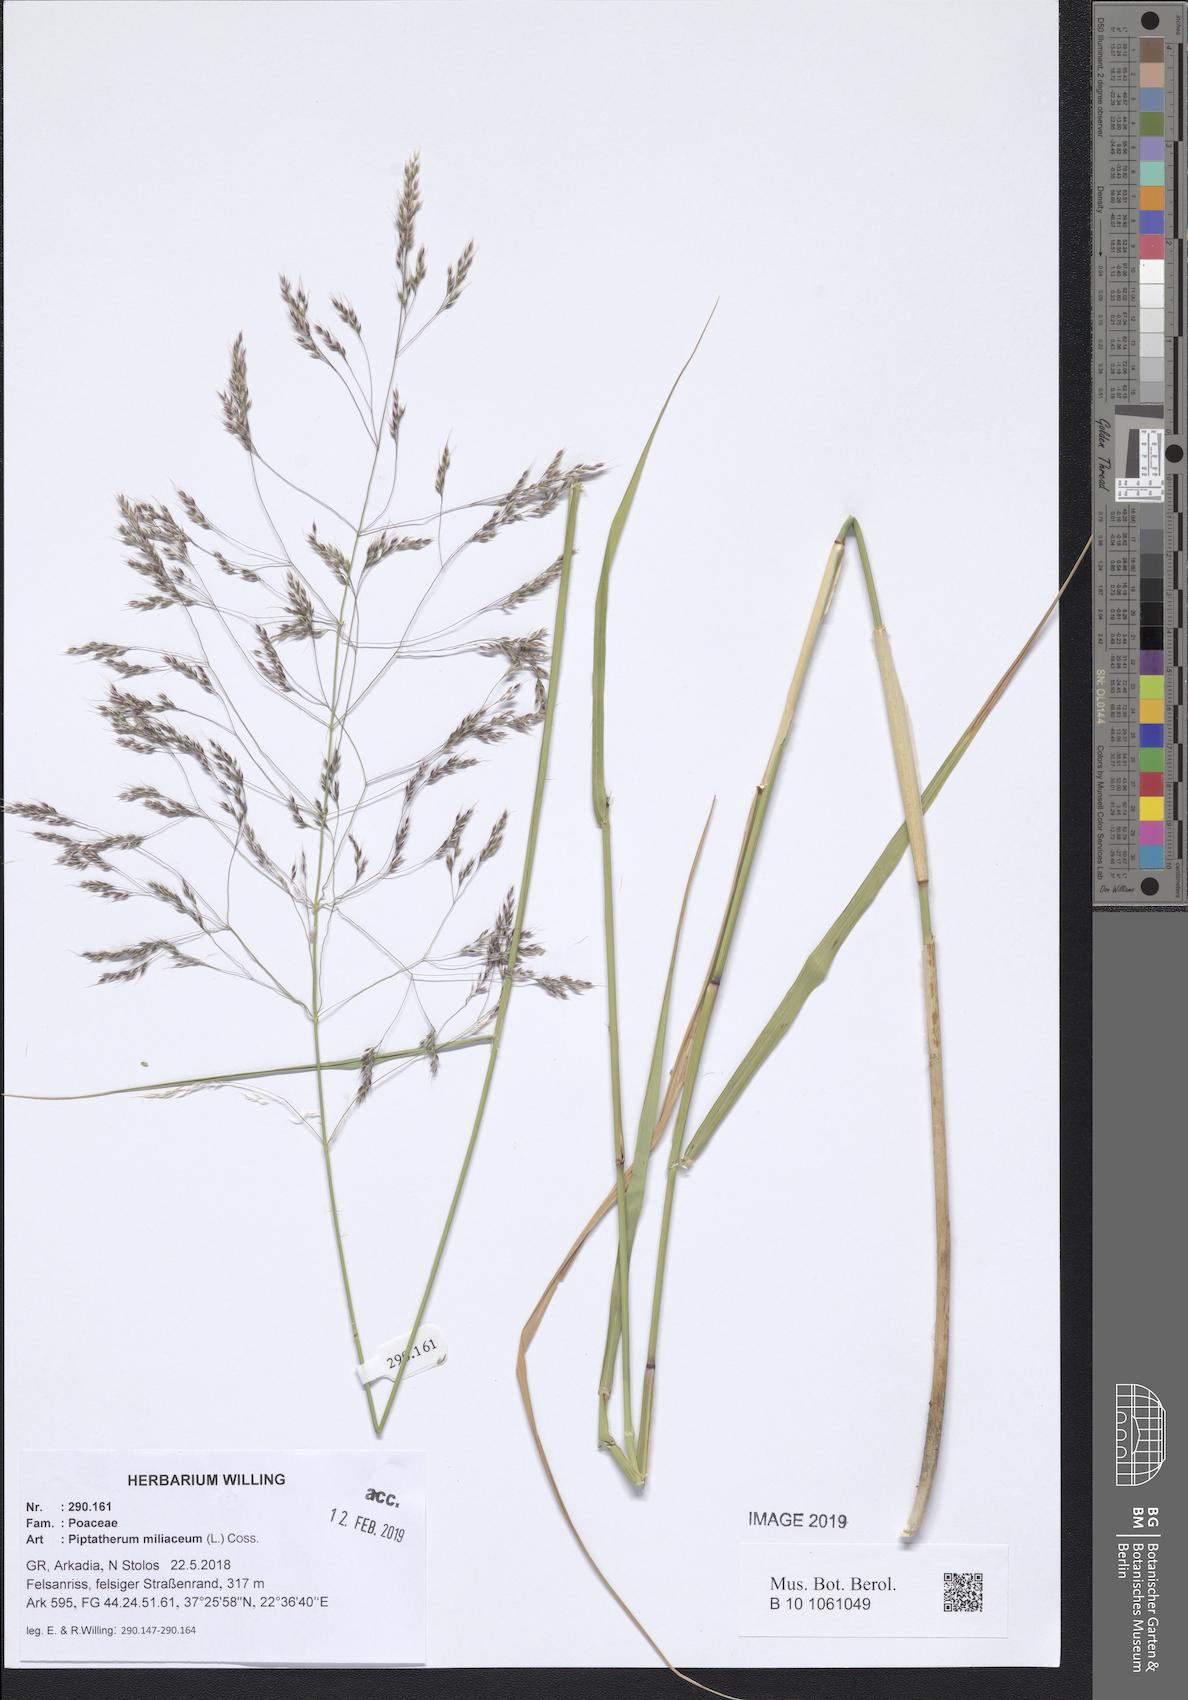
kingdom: Plantae
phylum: Tracheophyta
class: Liliopsida
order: Poales
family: Poaceae
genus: Oloptum
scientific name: Oloptum miliaceum
